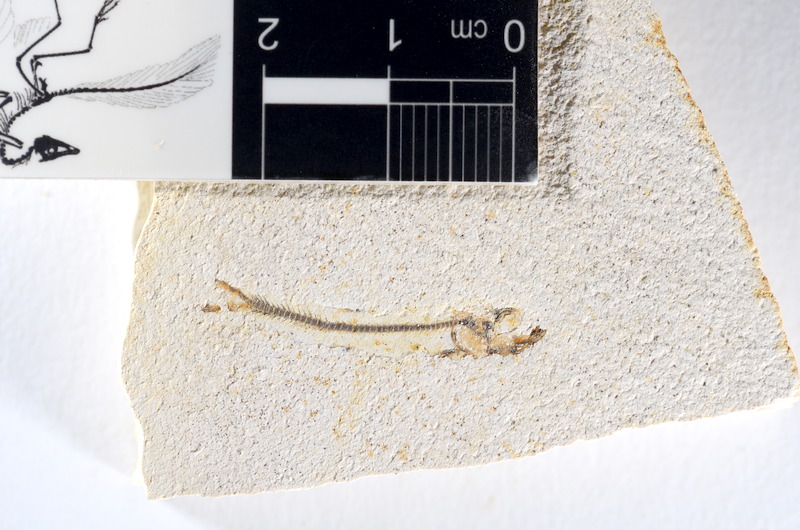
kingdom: Animalia
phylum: Chordata
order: Salmoniformes
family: Orthogonikleithridae
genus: Orthogonikleithrus
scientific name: Orthogonikleithrus hoelli
